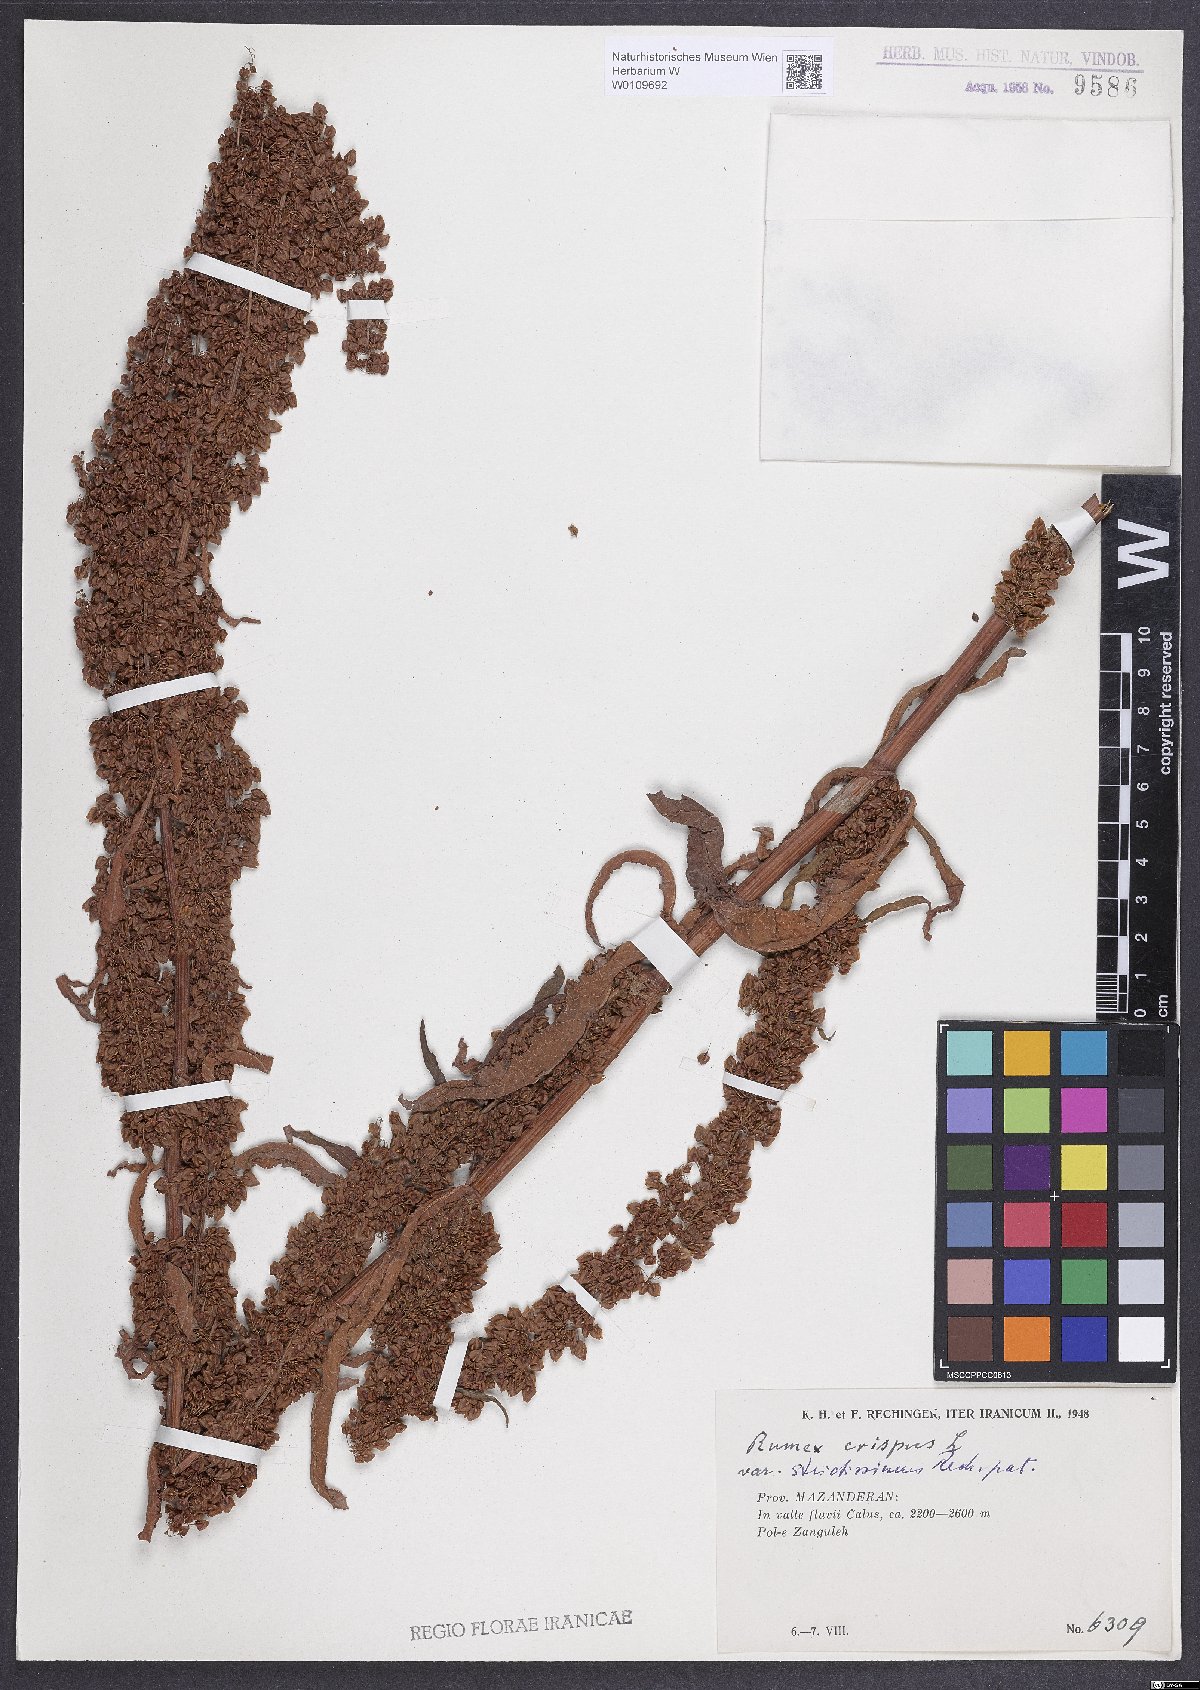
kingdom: Plantae
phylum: Tracheophyta
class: Magnoliopsida
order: Caryophyllales
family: Polygonaceae
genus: Rumex
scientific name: Rumex crispus
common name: Curled dock
